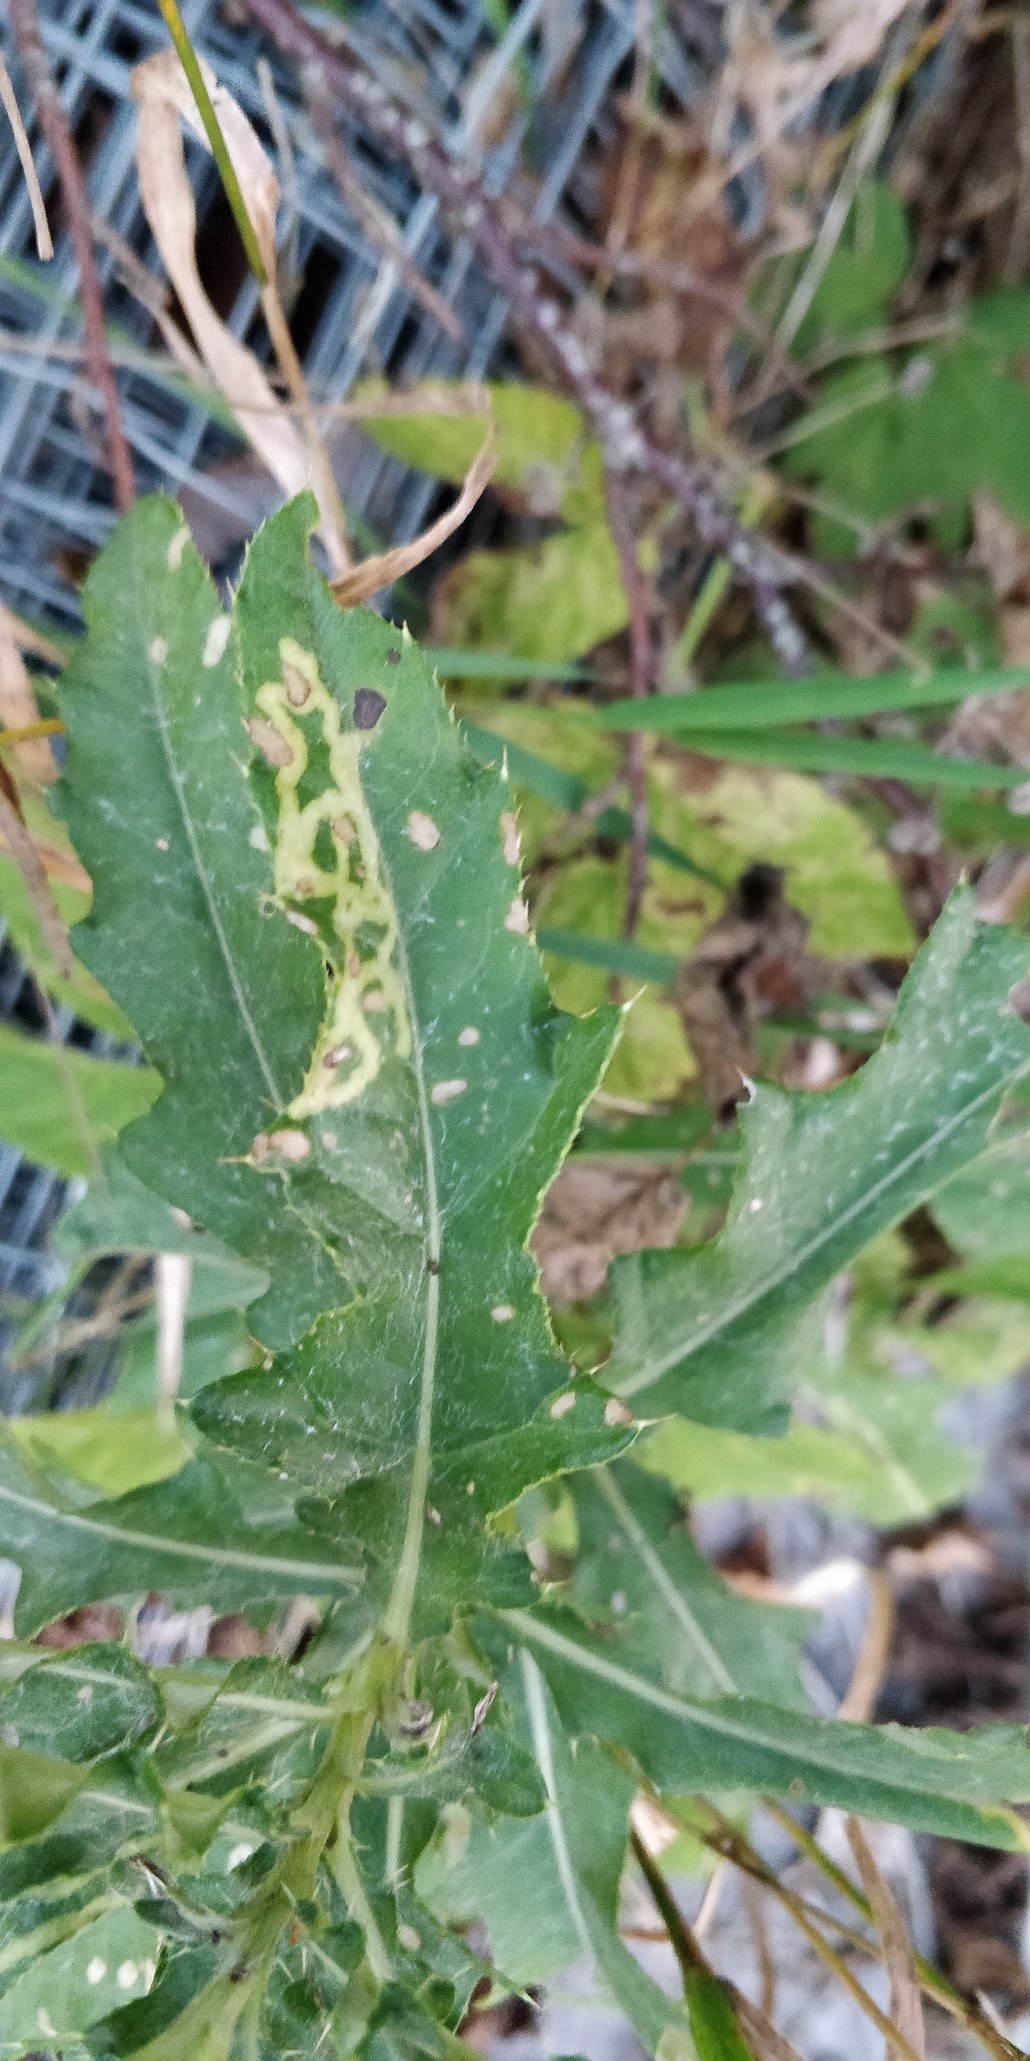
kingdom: Plantae
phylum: Tracheophyta
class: Magnoliopsida
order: Asterales
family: Asteraceae
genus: Cirsium
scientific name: Cirsium arvense
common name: Ager-tidsel
